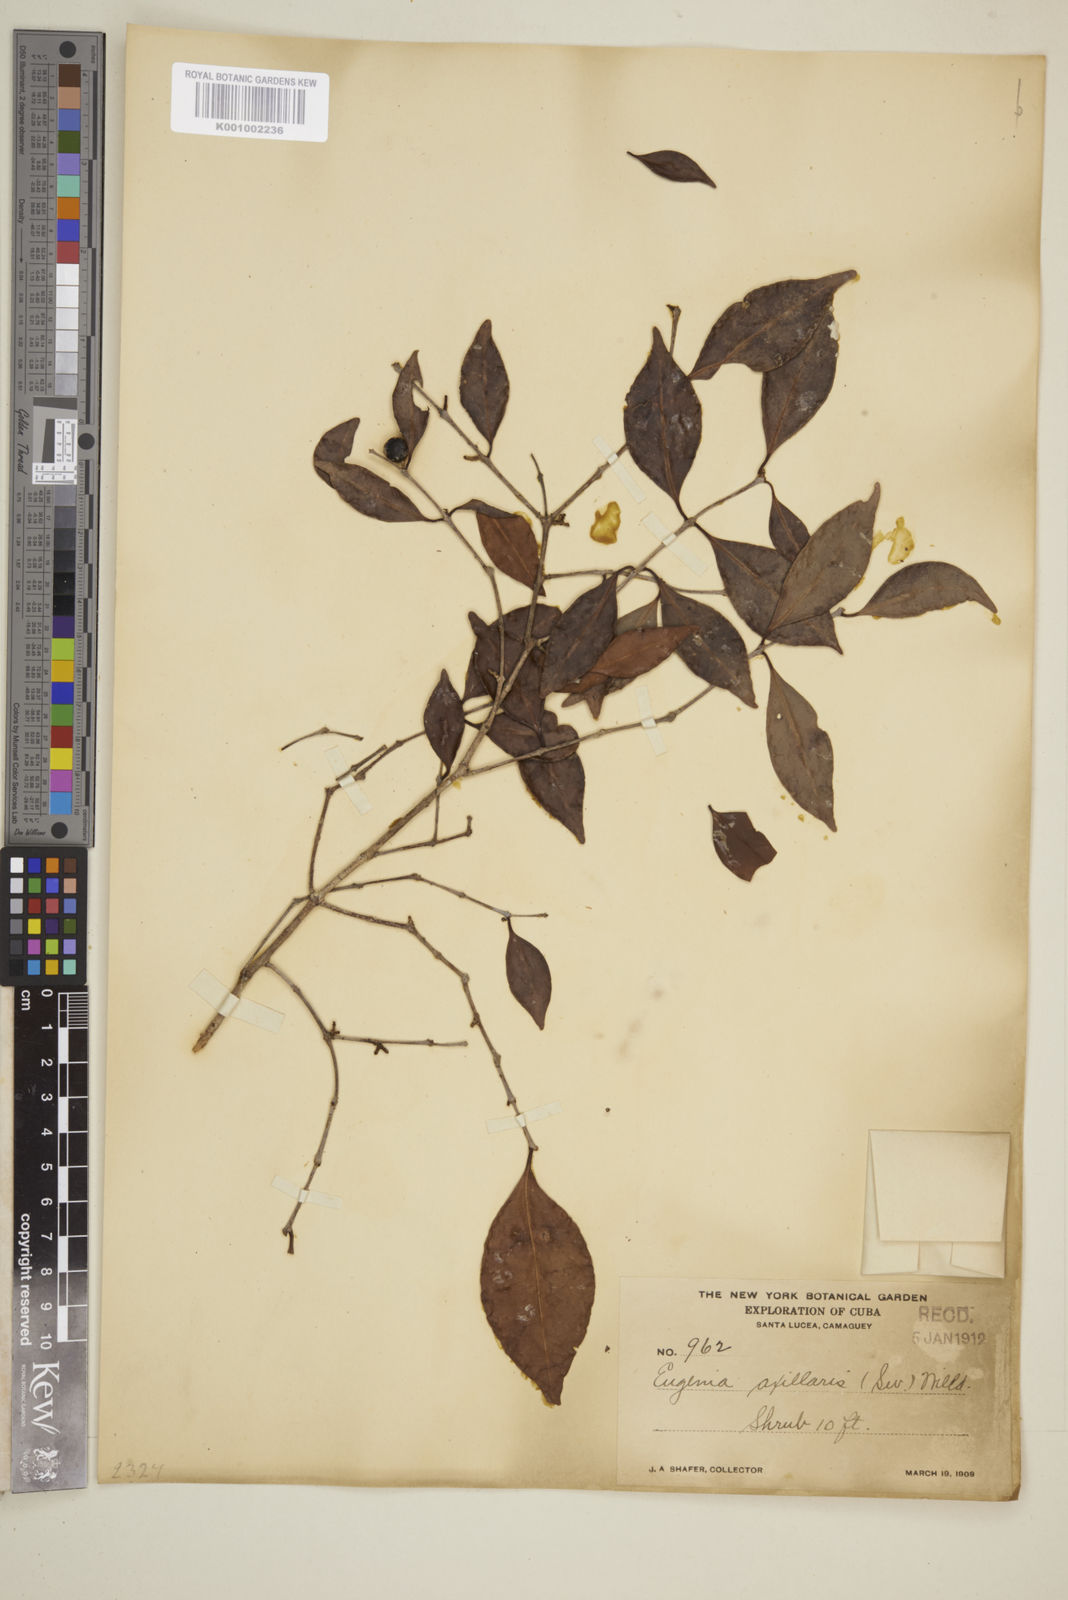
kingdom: Plantae
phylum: Tracheophyta
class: Magnoliopsida
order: Myrtales
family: Myrtaceae
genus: Eugenia
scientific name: Eugenia axillaris
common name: Choaky berry
